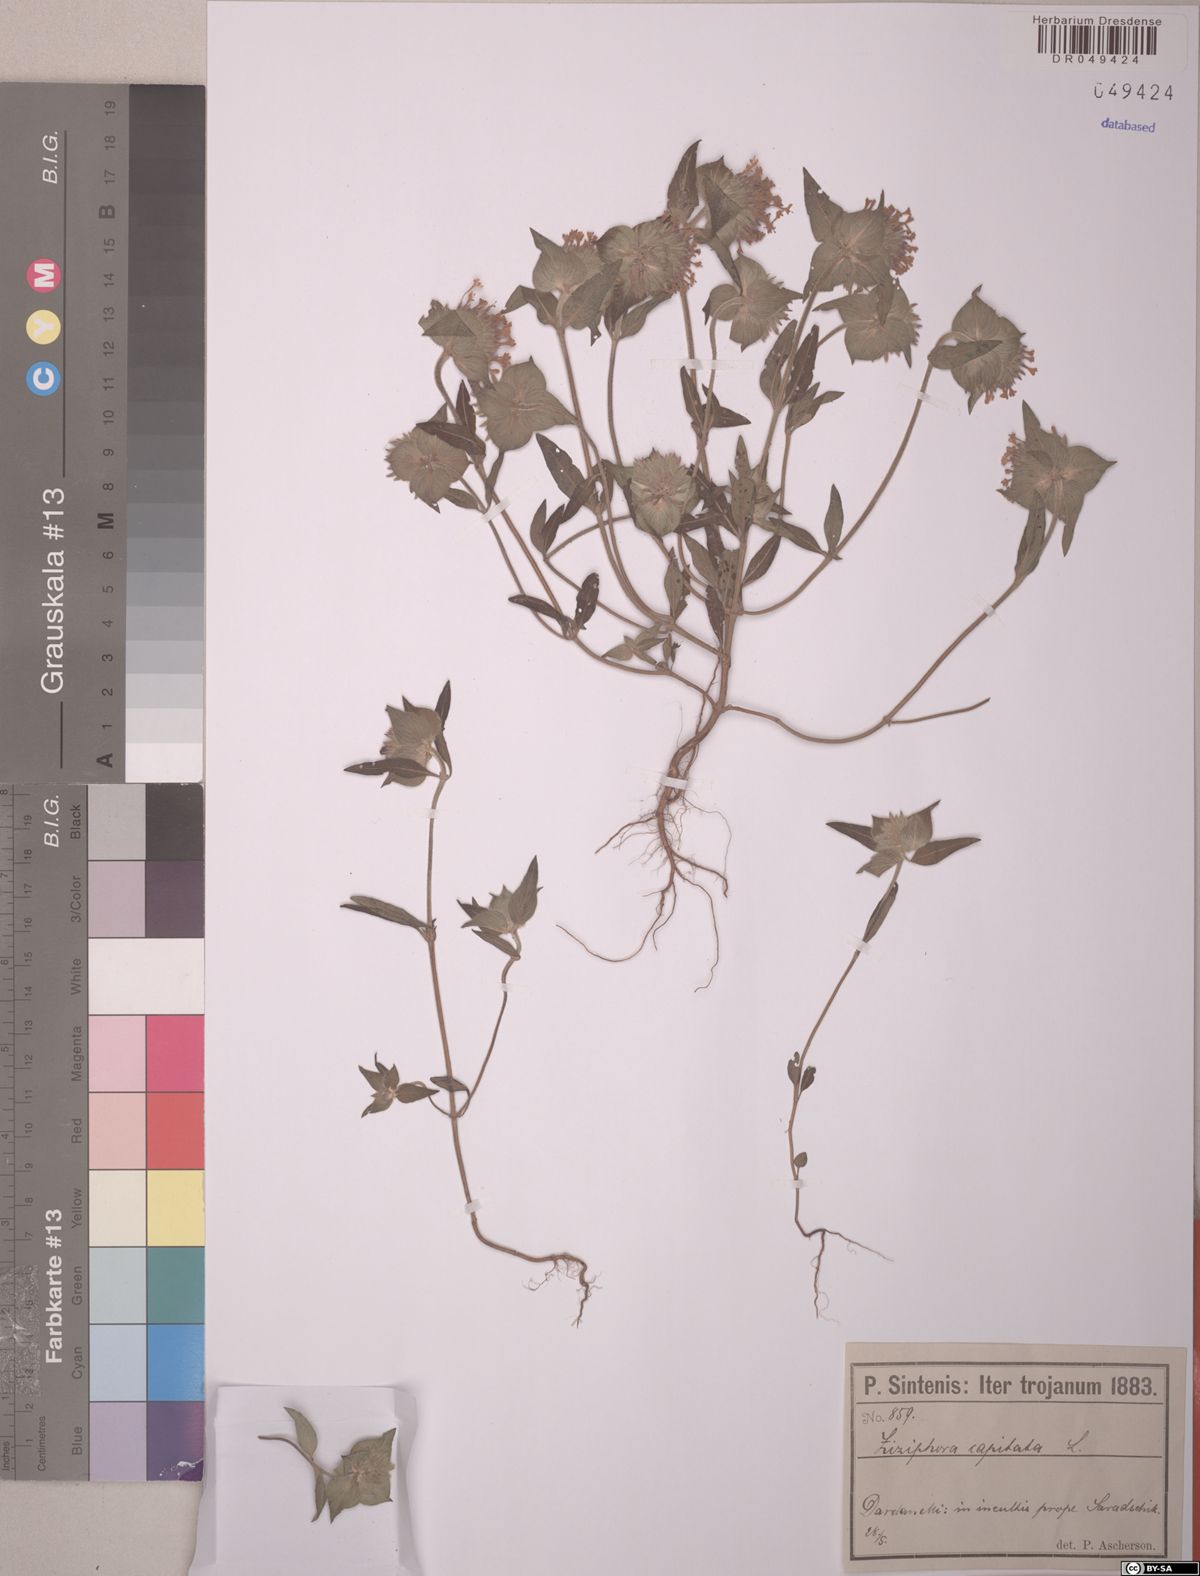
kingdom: Plantae
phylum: Tracheophyta
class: Magnoliopsida
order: Lamiales
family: Lamiaceae
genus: Ziziphora
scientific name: Ziziphora capitata
